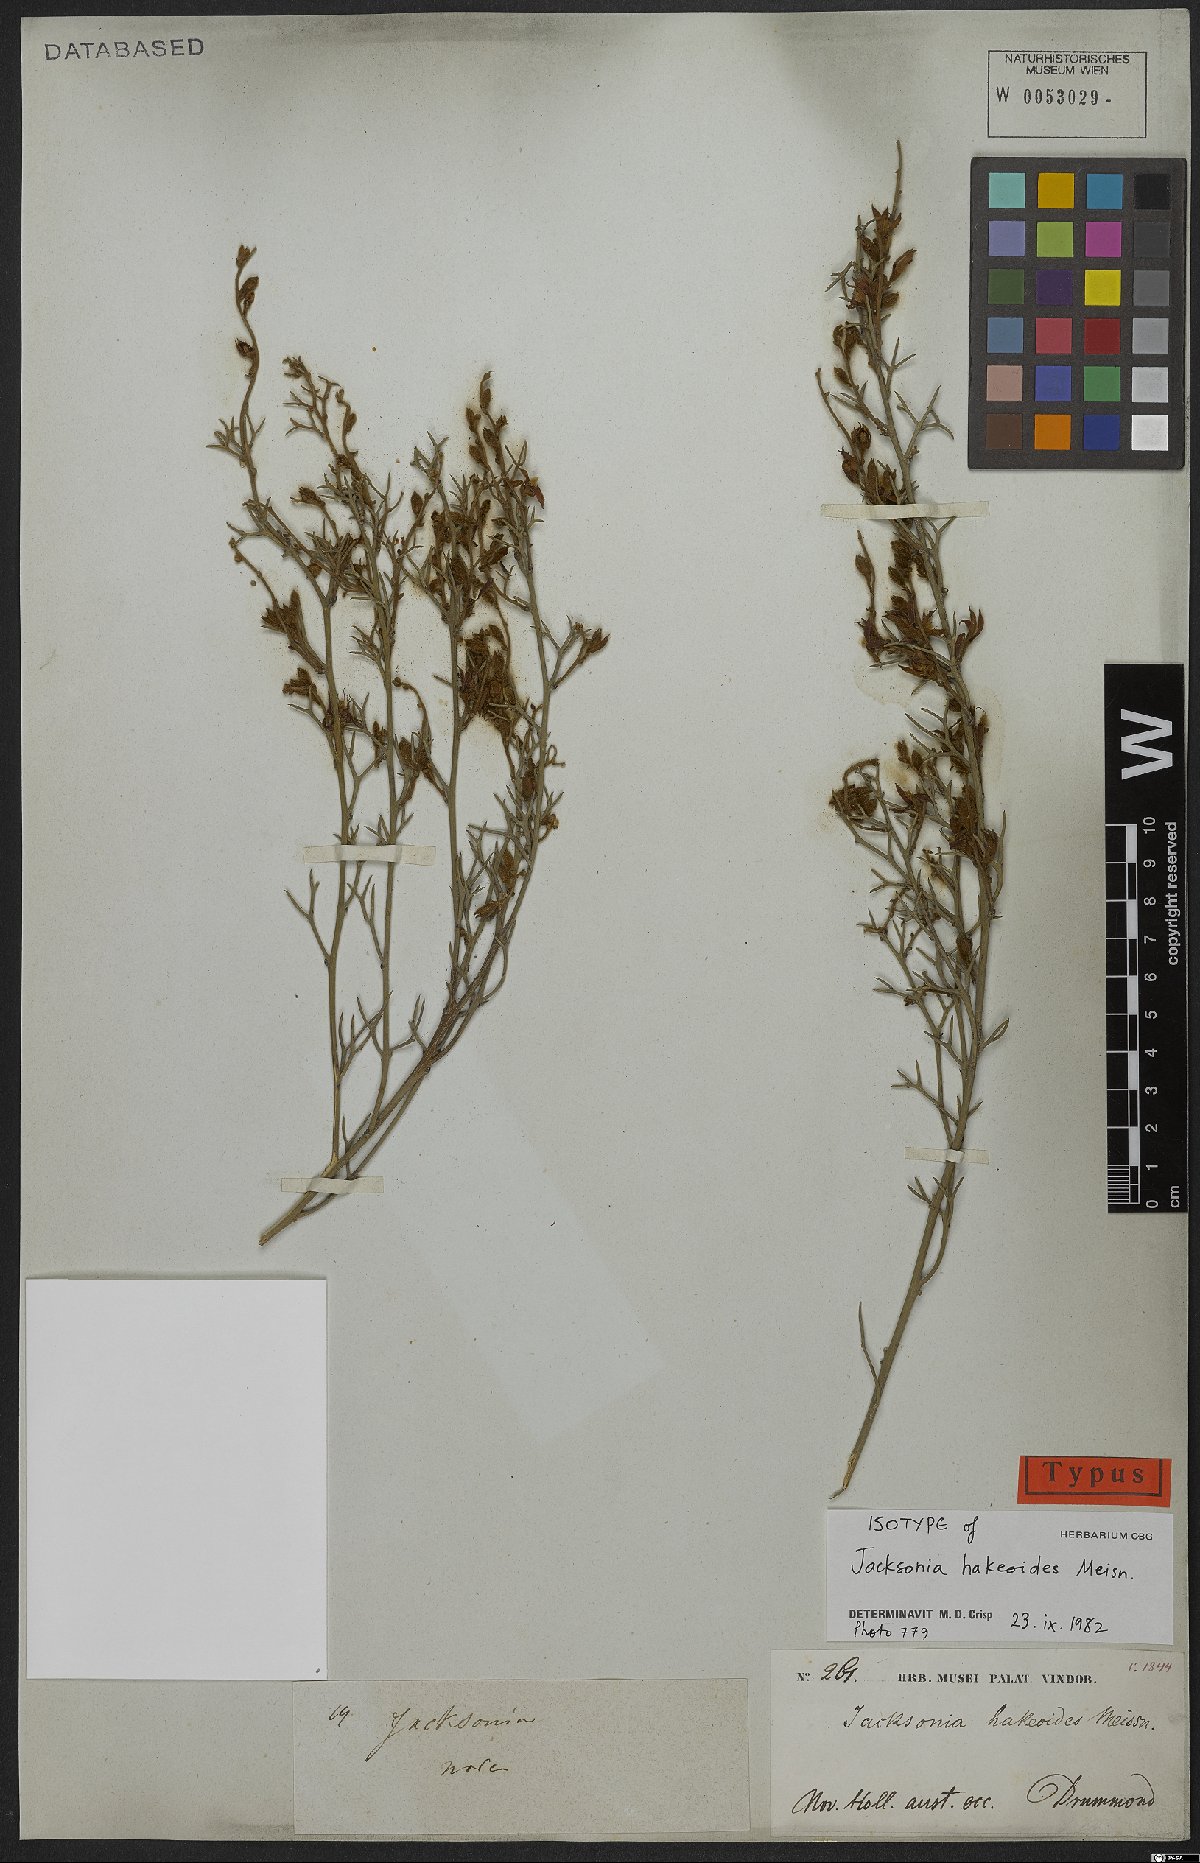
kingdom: Plantae
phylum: Tracheophyta
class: Magnoliopsida
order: Fabales
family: Fabaceae
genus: Jacksonia
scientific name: Jacksonia hakeoides
